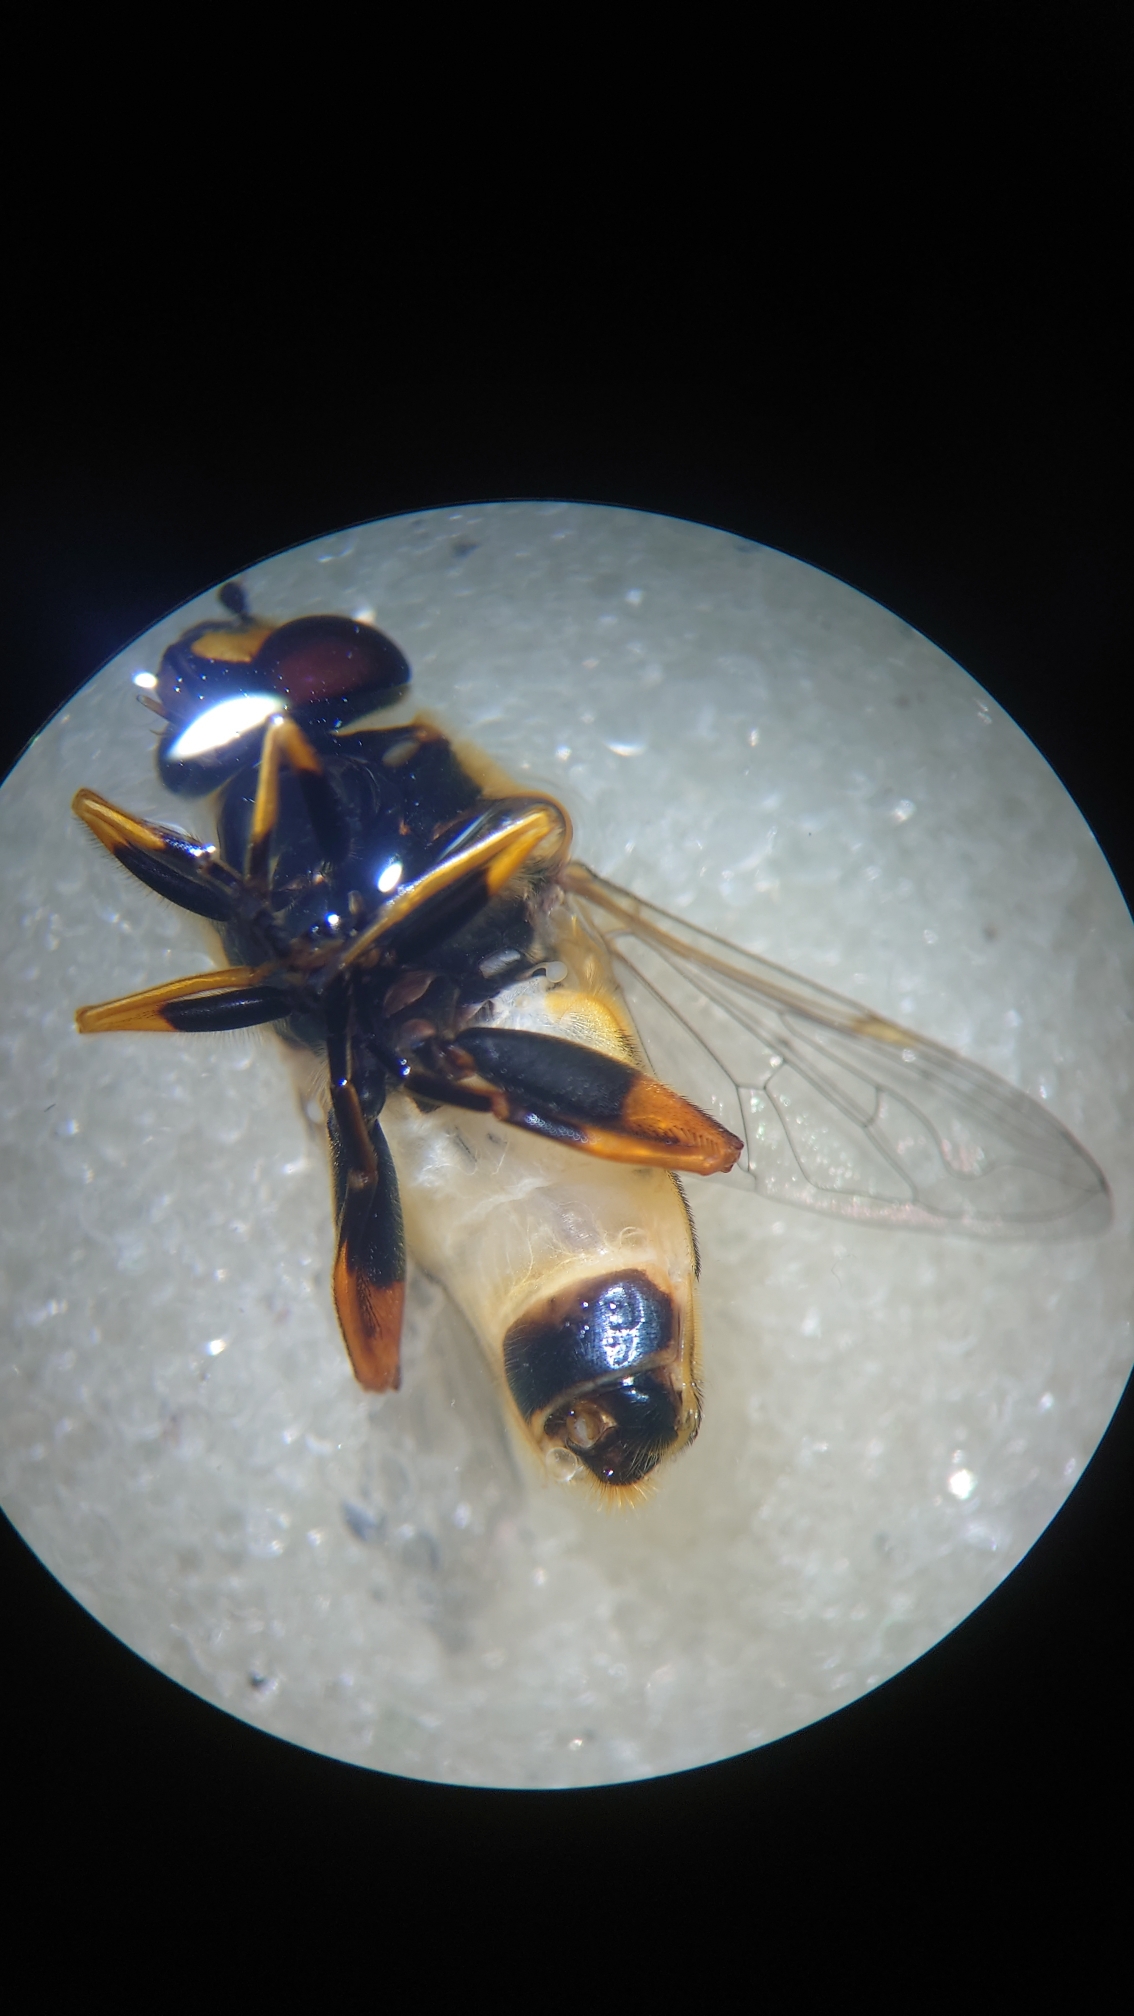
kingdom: Animalia
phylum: Arthropoda
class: Insecta
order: Diptera
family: Syrphidae
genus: Helophilus
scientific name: Helophilus pendulus
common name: Almindelig sumpsvirreflue
